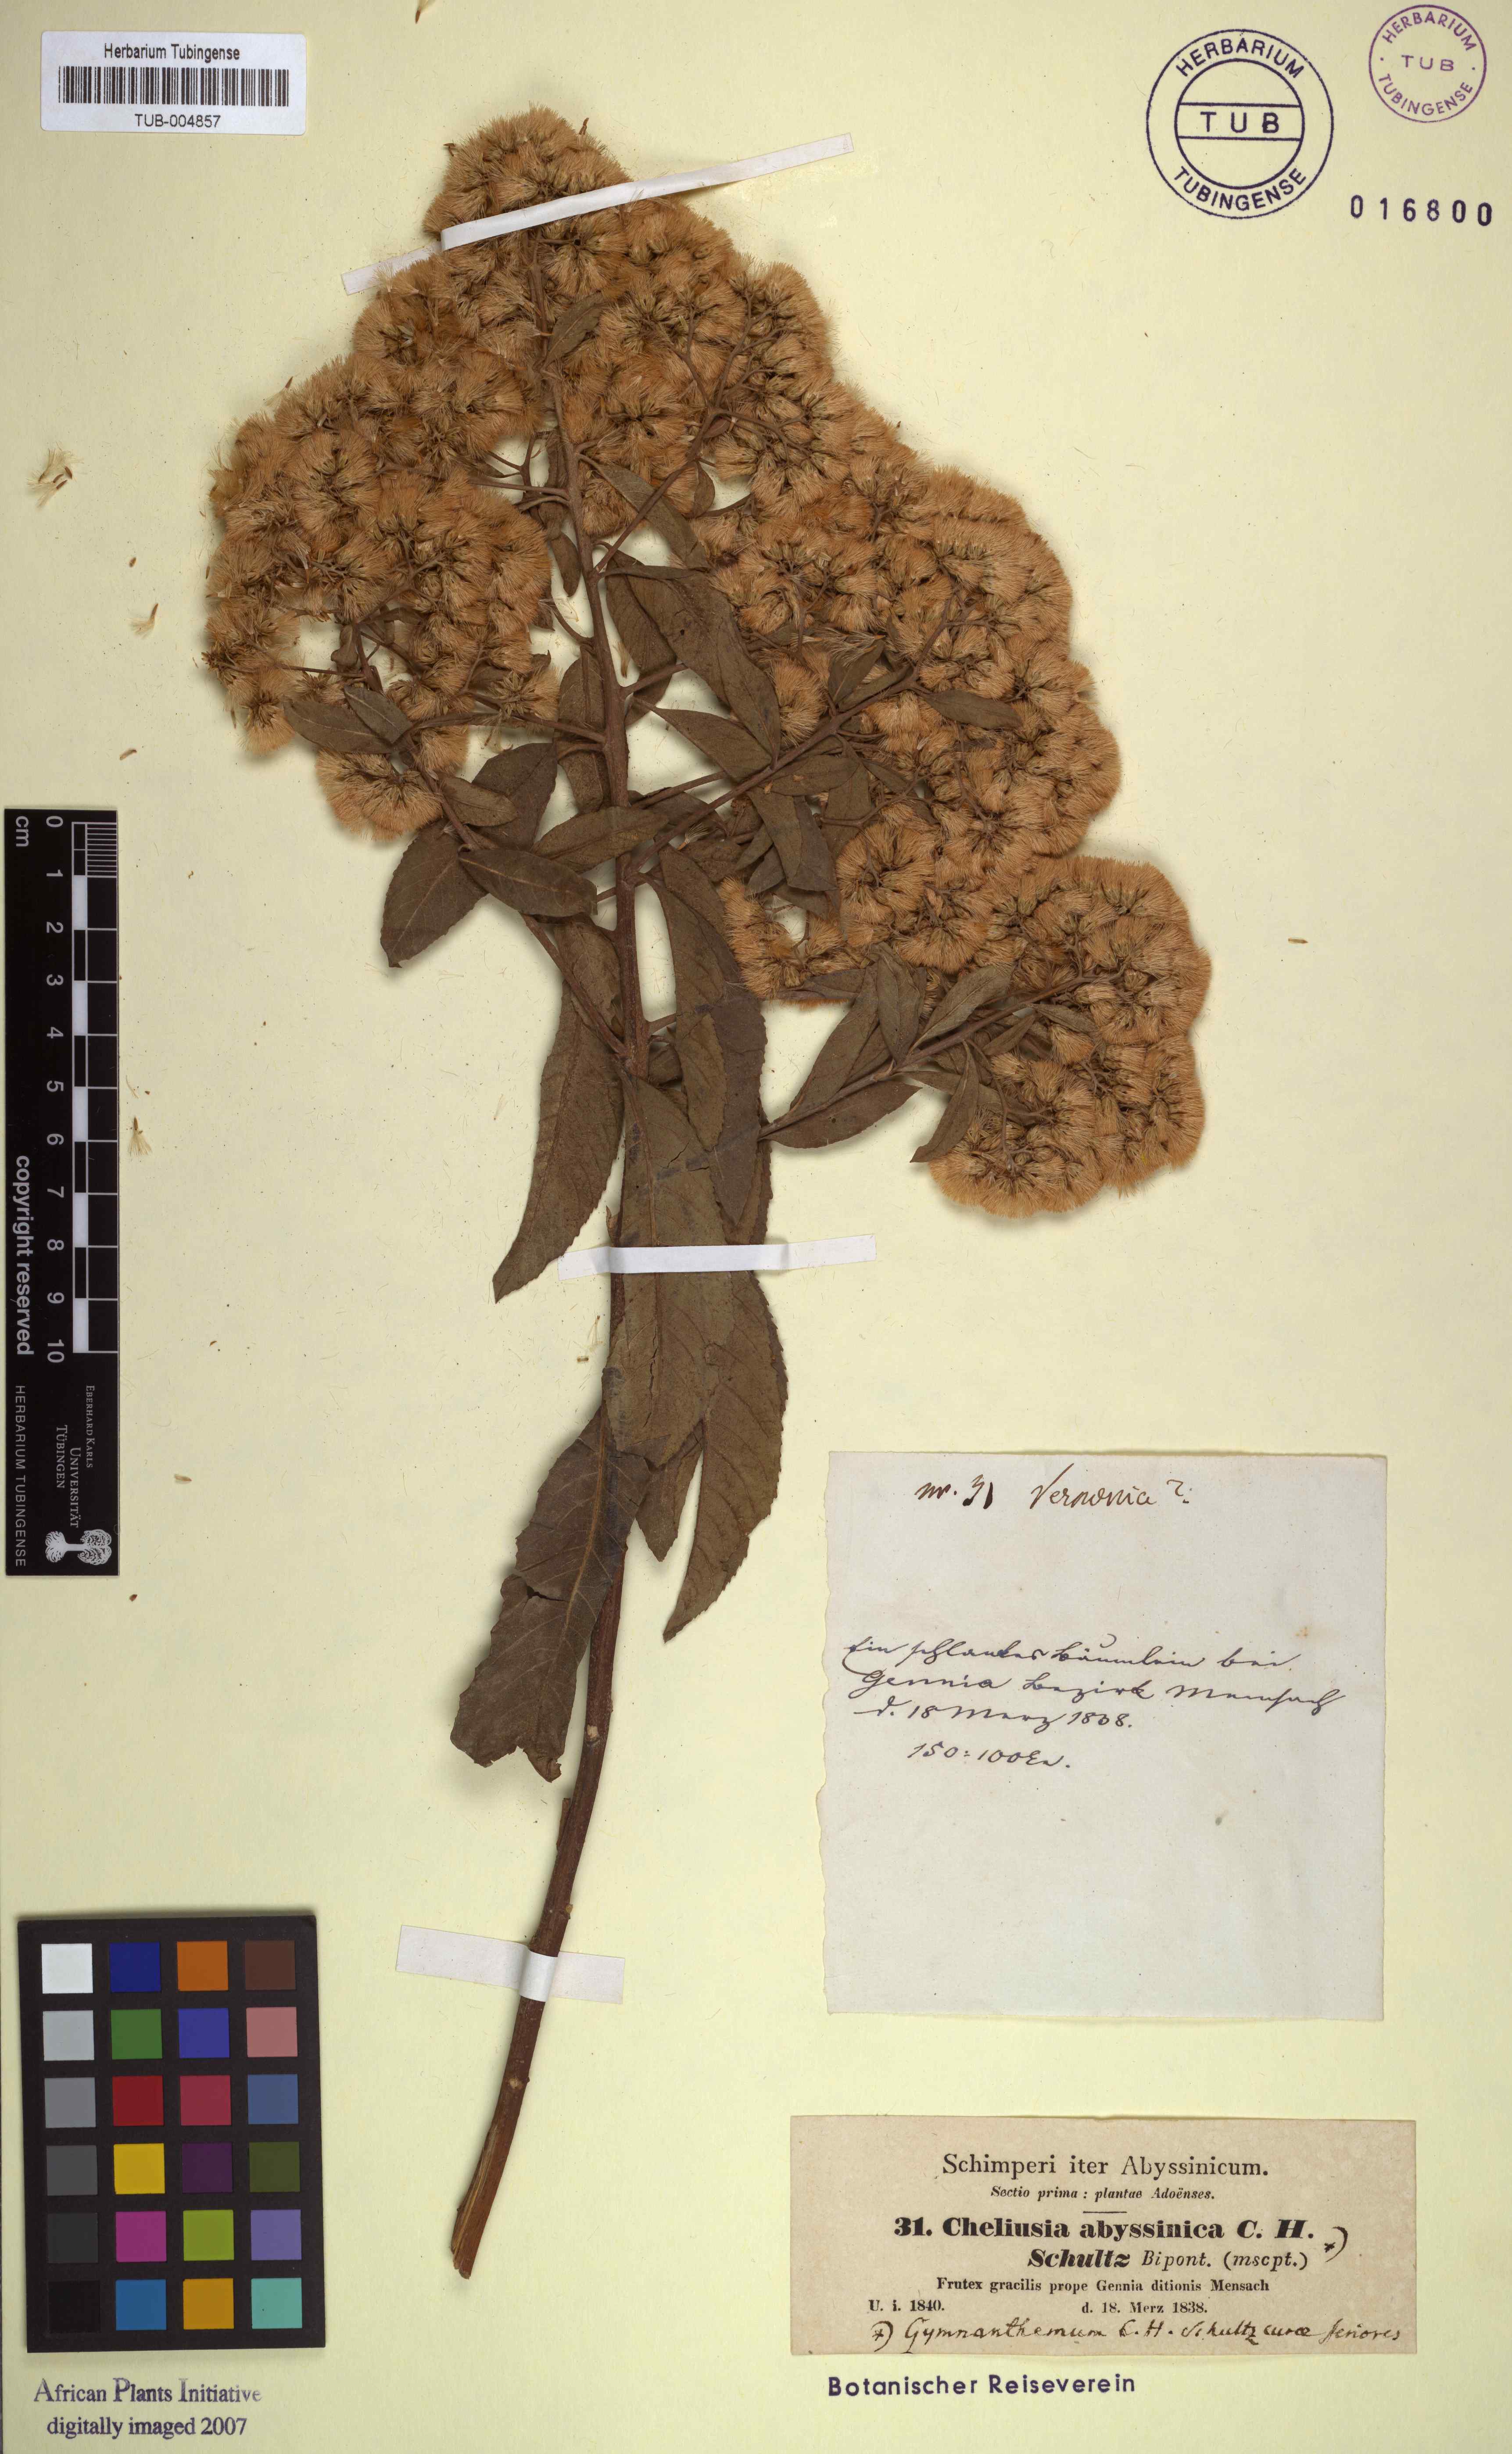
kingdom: Plantae
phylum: Tracheophyta
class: Magnoliopsida
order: Asterales
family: Asteraceae
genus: Gymnanthemum
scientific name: Gymnanthemum amygdalinum
